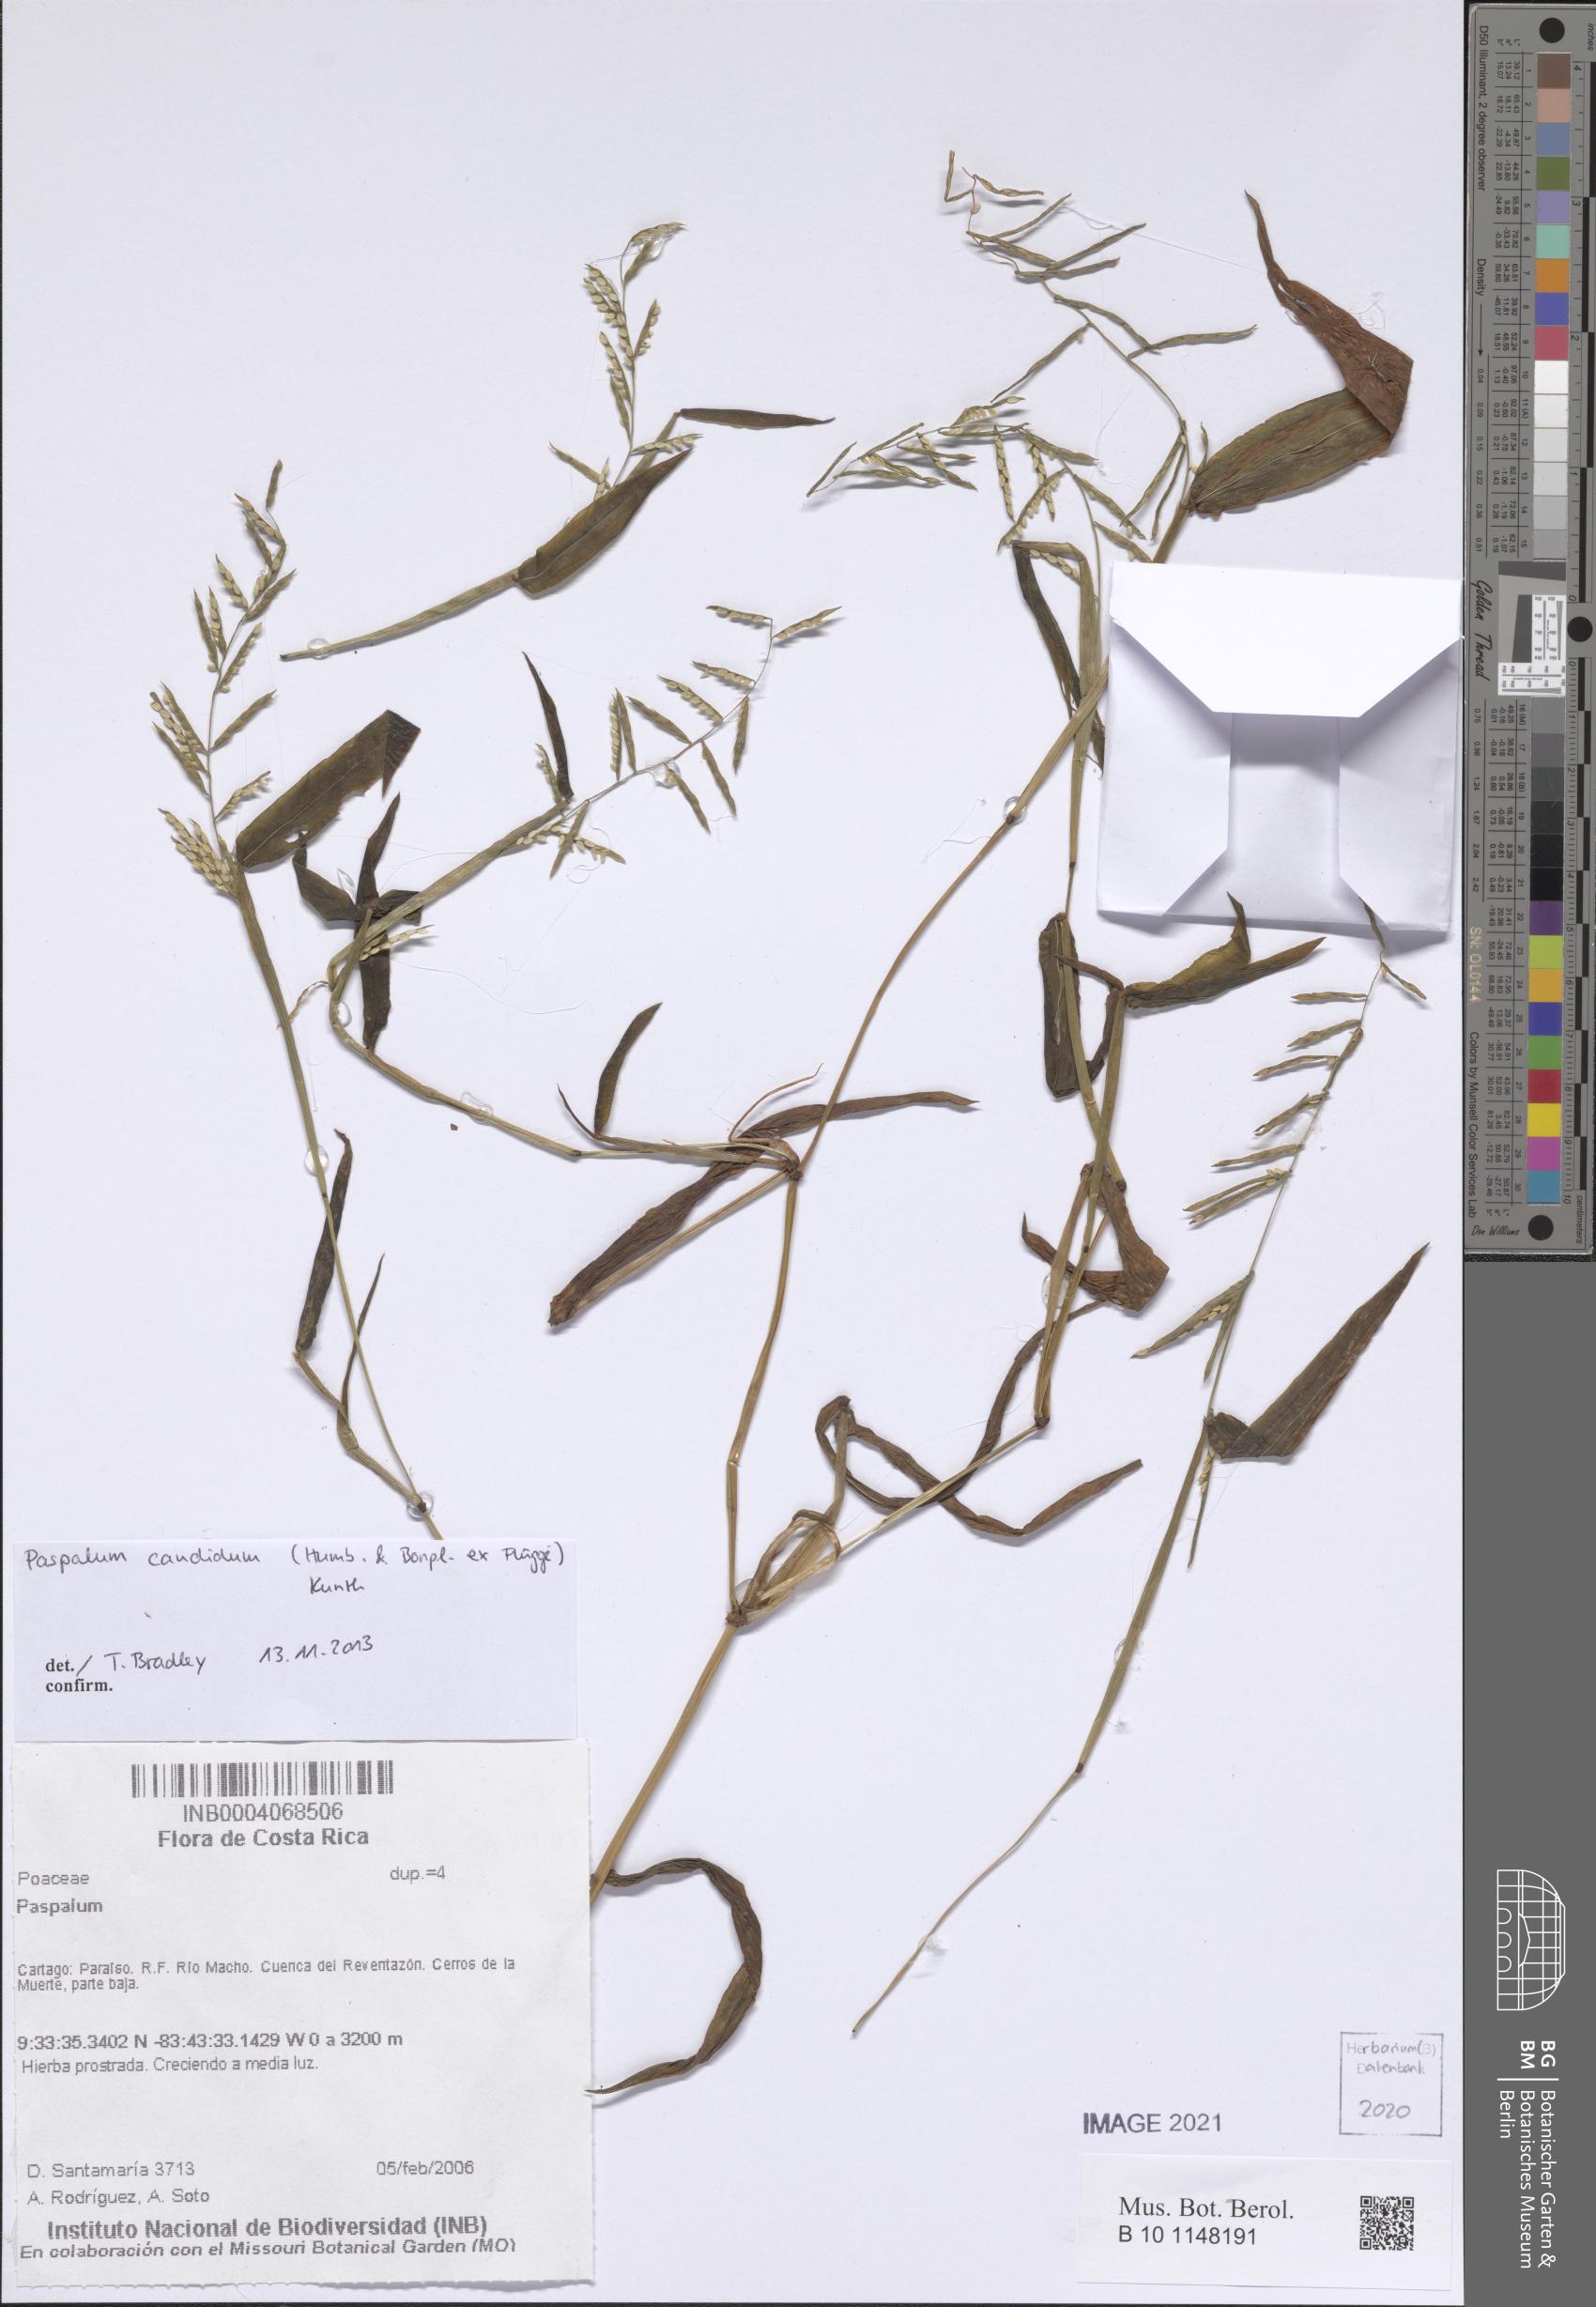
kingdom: Plantae
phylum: Tracheophyta
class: Liliopsida
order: Poales
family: Poaceae
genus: Paspalum
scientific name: Paspalum candidum
